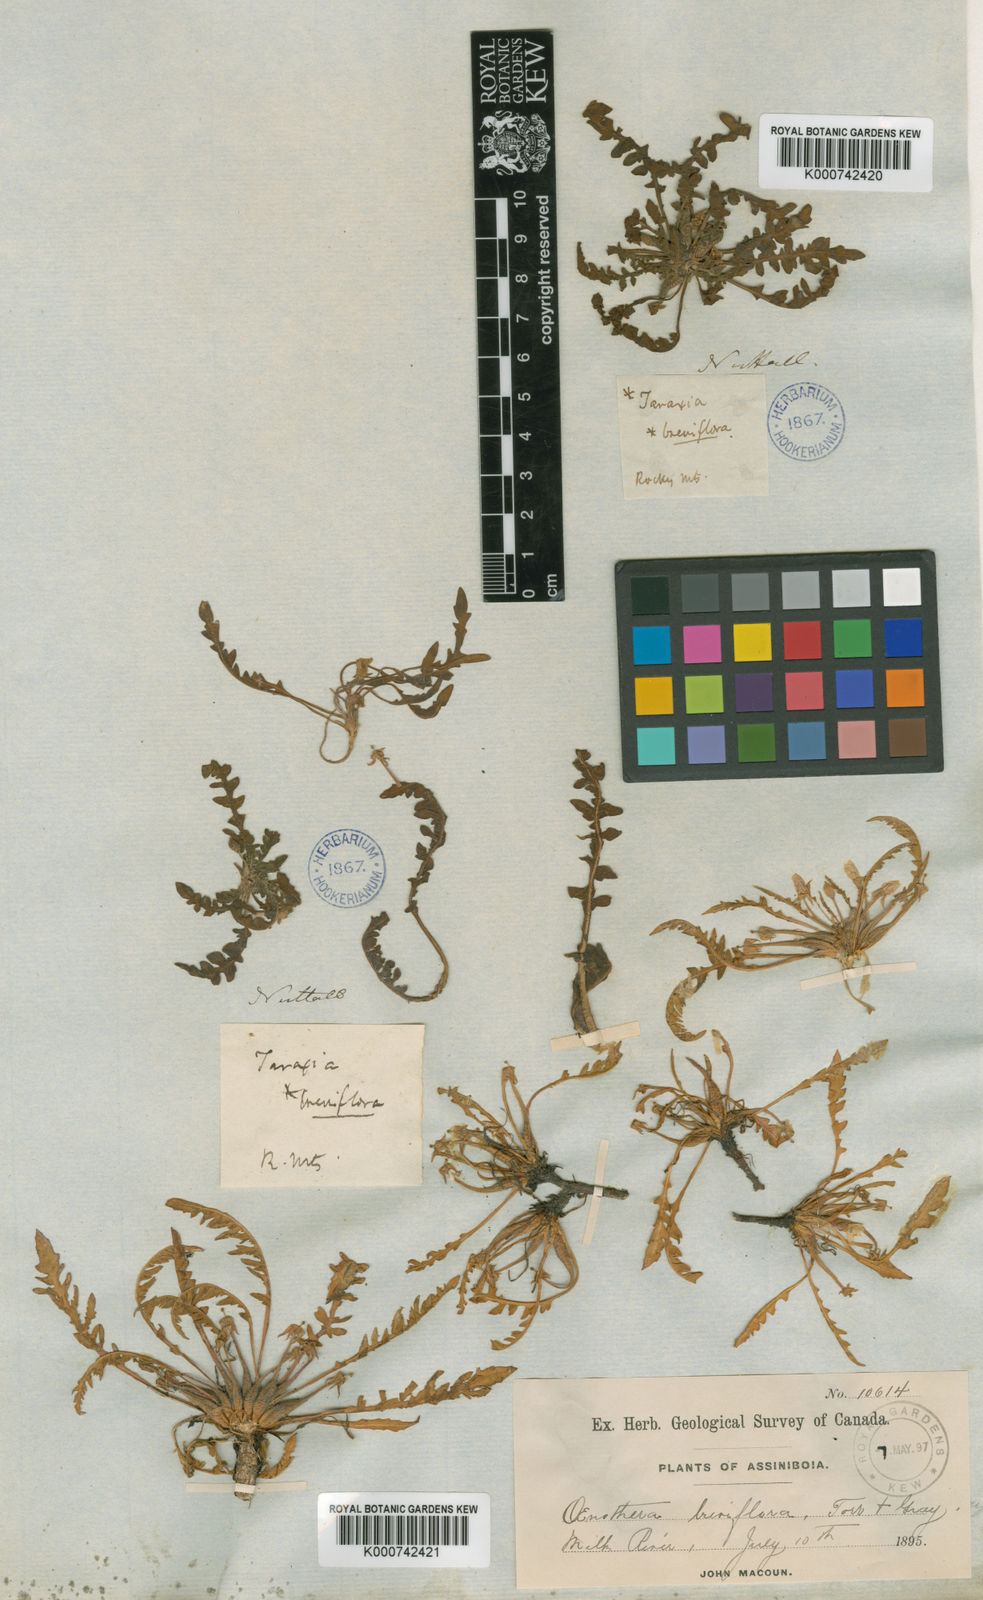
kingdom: Plantae
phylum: Tracheophyta
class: Magnoliopsida
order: Myrtales
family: Onagraceae
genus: Taraxia
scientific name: Taraxia breviflora
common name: Few-flowered evening primrose
